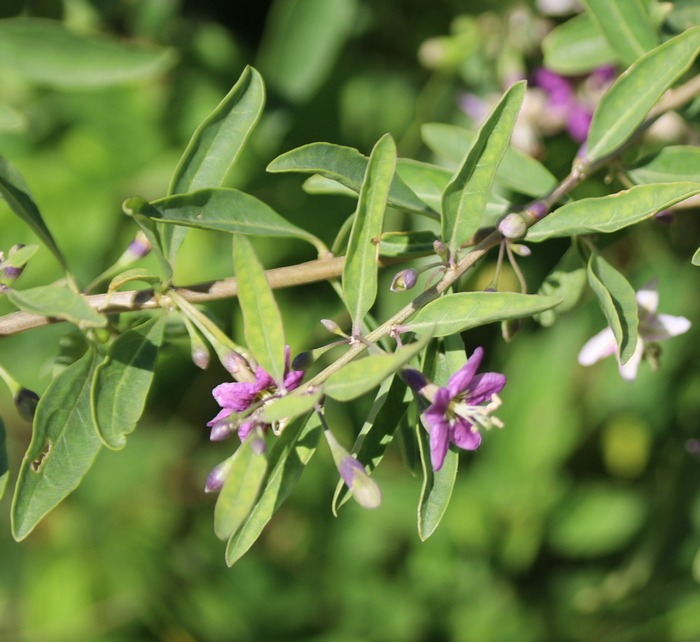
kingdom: Plantae
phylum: Tracheophyta
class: Magnoliopsida
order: Solanales
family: Solanaceae
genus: Lycium
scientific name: Lycium barbarum
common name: Bukketorn
